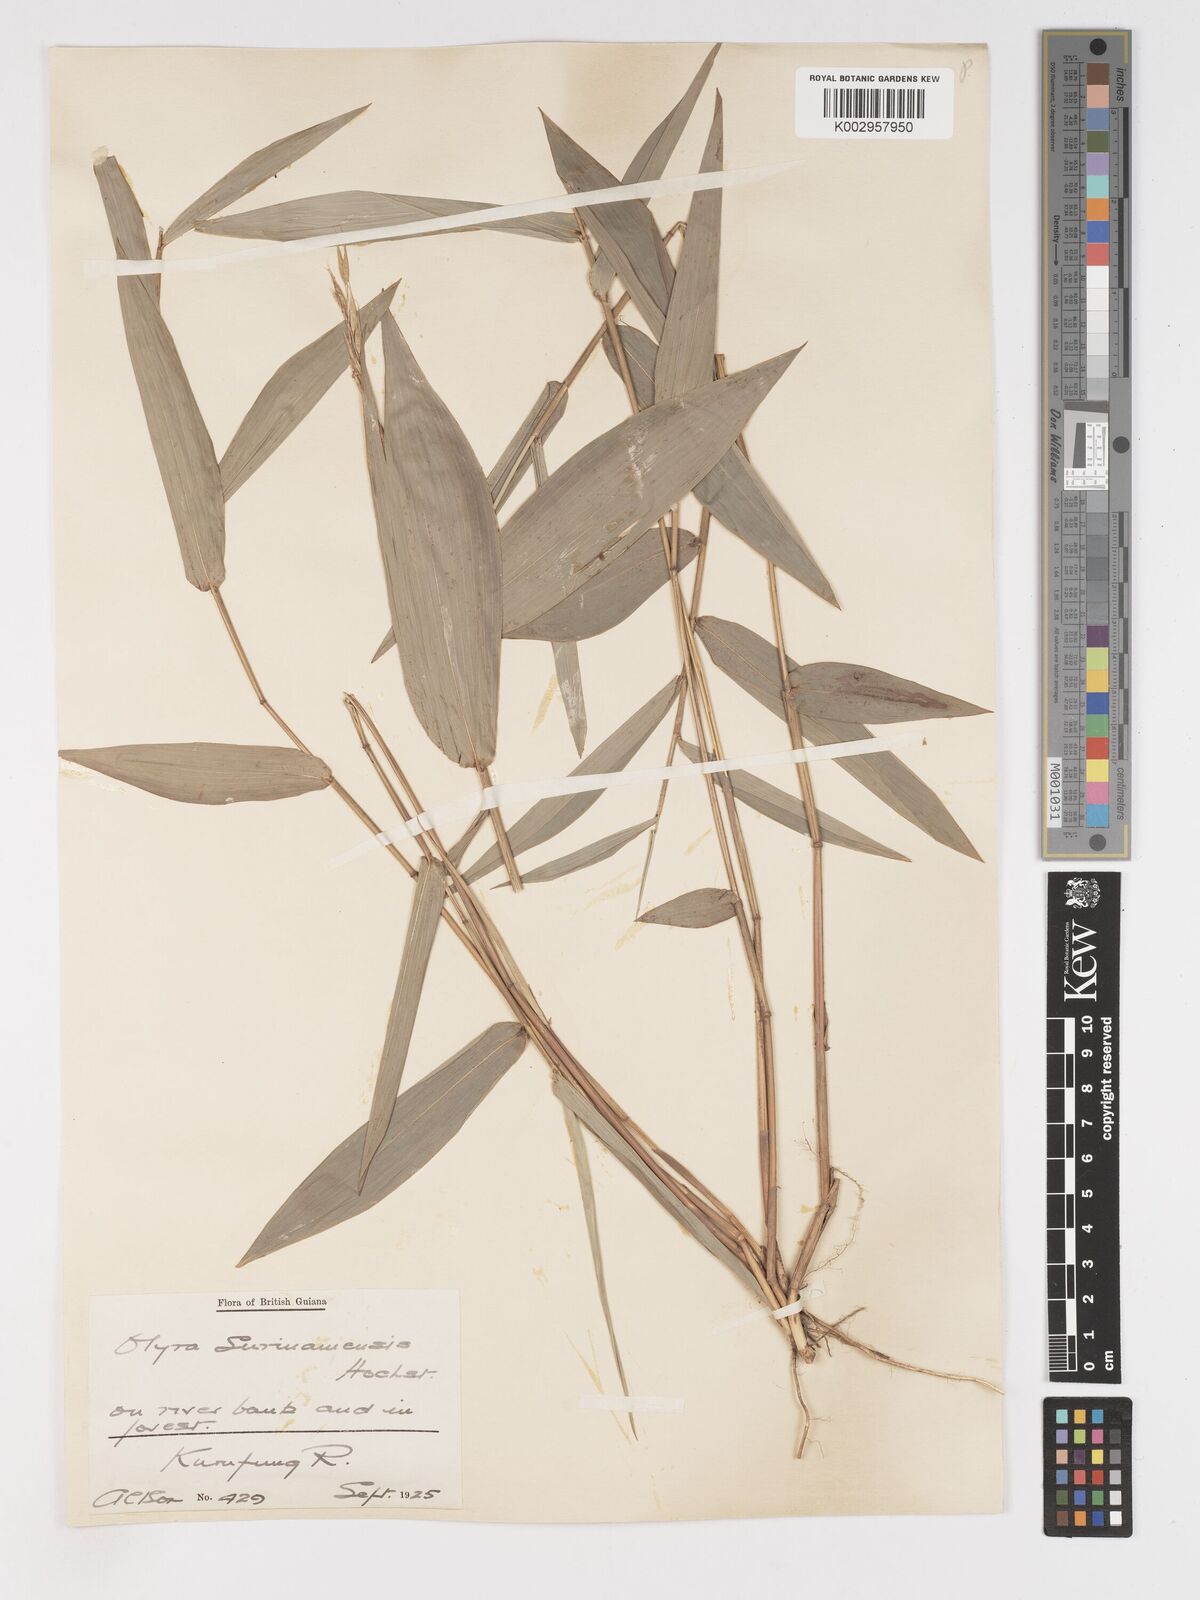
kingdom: Plantae
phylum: Tracheophyta
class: Liliopsida
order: Poales
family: Poaceae
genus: Olyra
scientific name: Olyra longifolia
